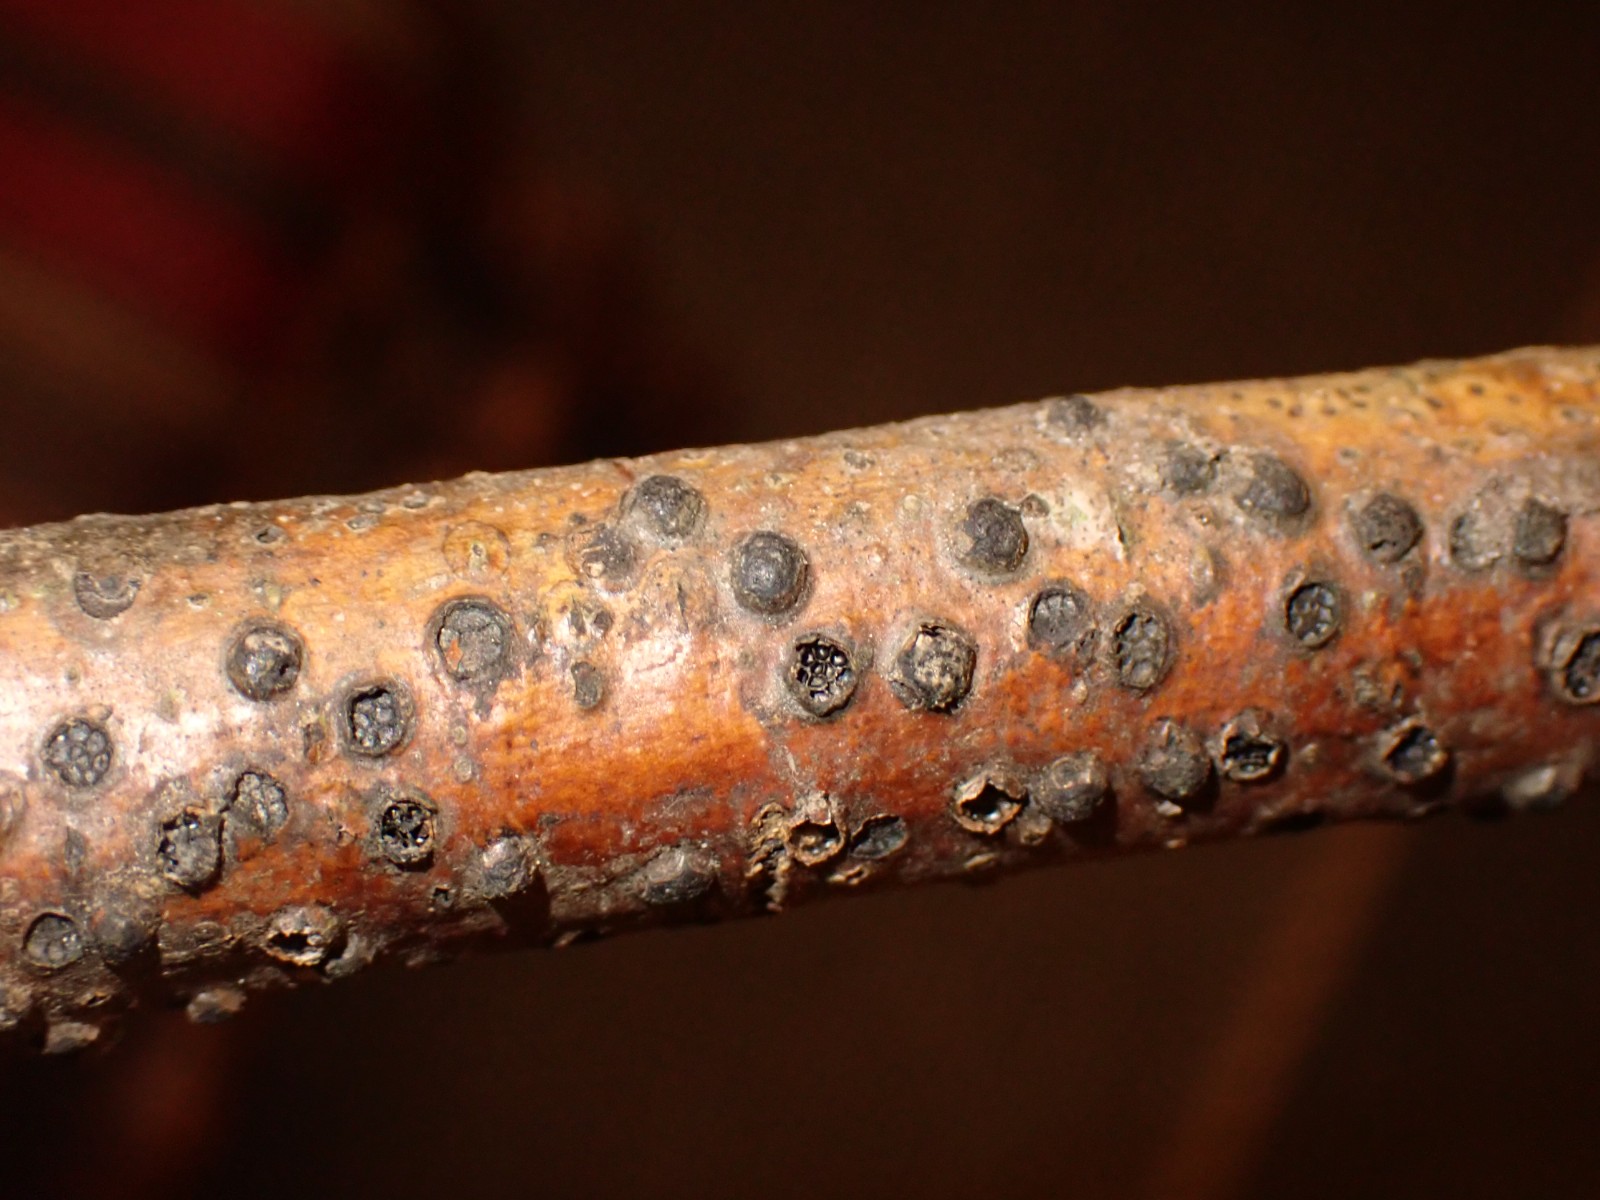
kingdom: Fungi
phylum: Ascomycota
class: Sordariomycetes
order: Xylariales
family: Diatrypaceae
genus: Diatrype
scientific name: Diatrype disciformis
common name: kant-kulskorpe
